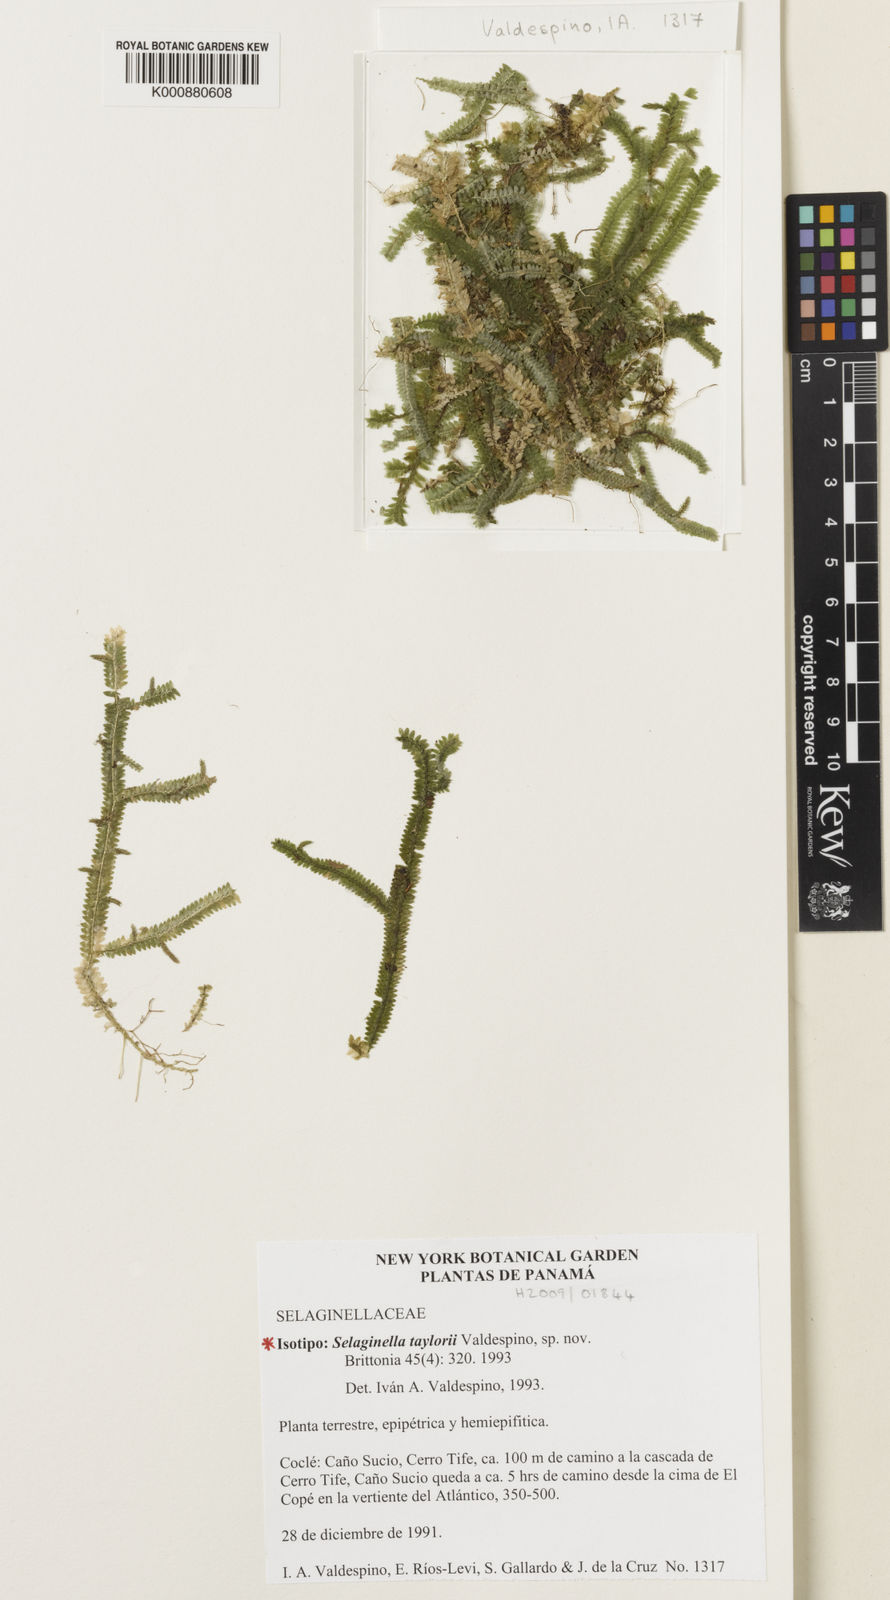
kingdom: Plantae
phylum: Tracheophyta
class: Lycopodiopsida
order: Selaginellales
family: Selaginellaceae
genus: Selaginella
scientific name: Selaginella taylorii
